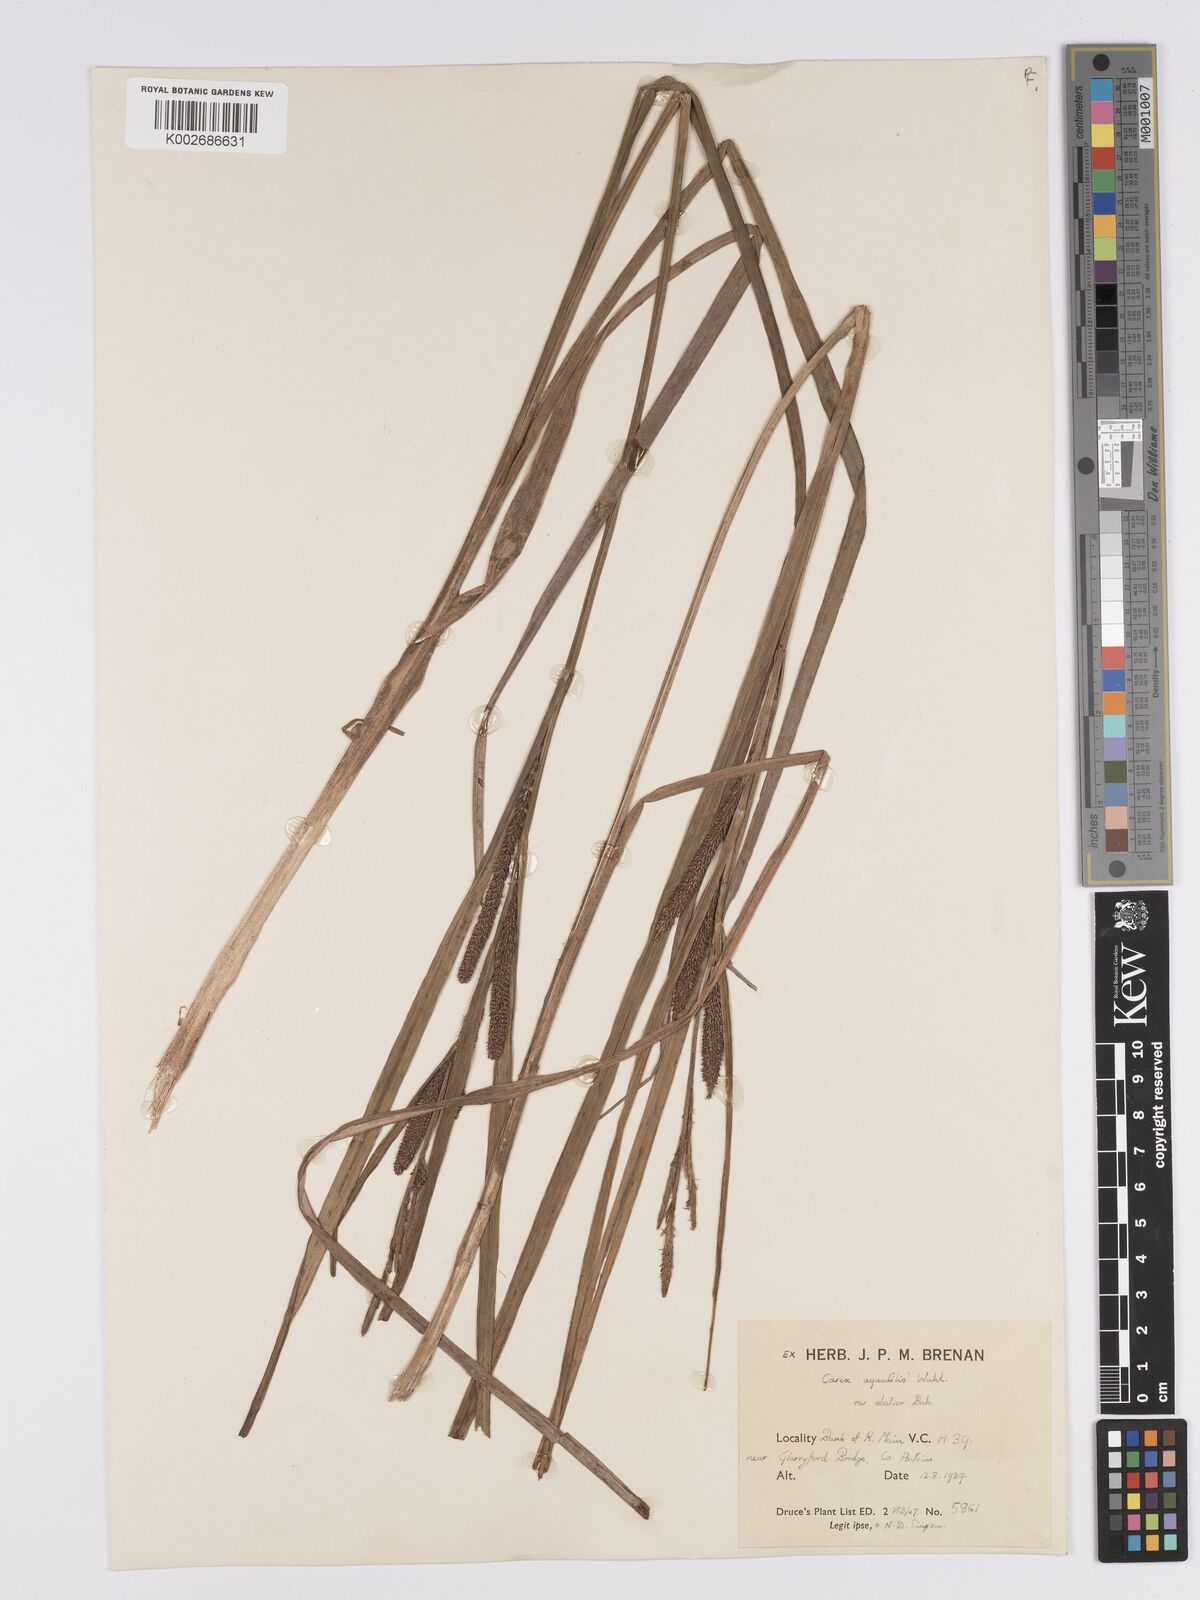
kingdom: Plantae
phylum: Tracheophyta
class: Liliopsida
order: Poales
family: Cyperaceae
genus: Carex
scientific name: Carex aquatilis
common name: Water sedge
